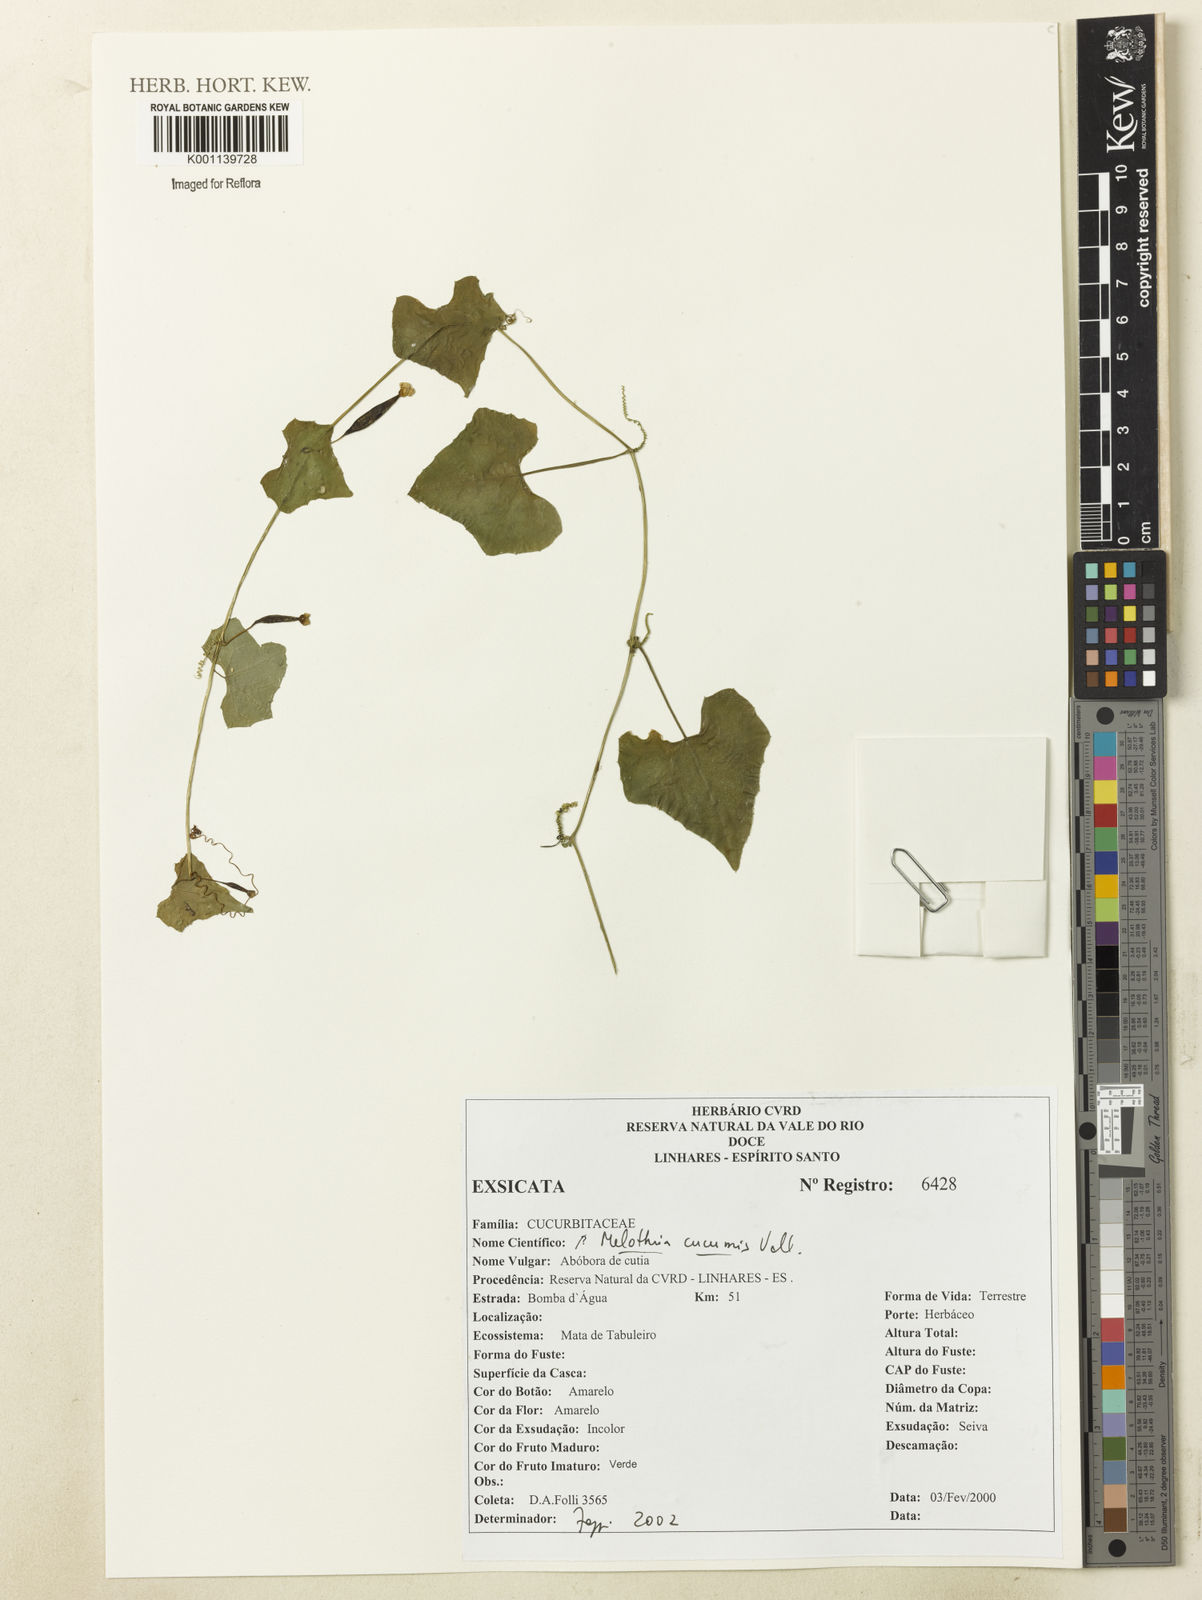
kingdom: Plantae
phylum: Tracheophyta
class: Magnoliopsida
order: Cucurbitales
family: Cucurbitaceae
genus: Melothria
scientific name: Melothria cucumis
